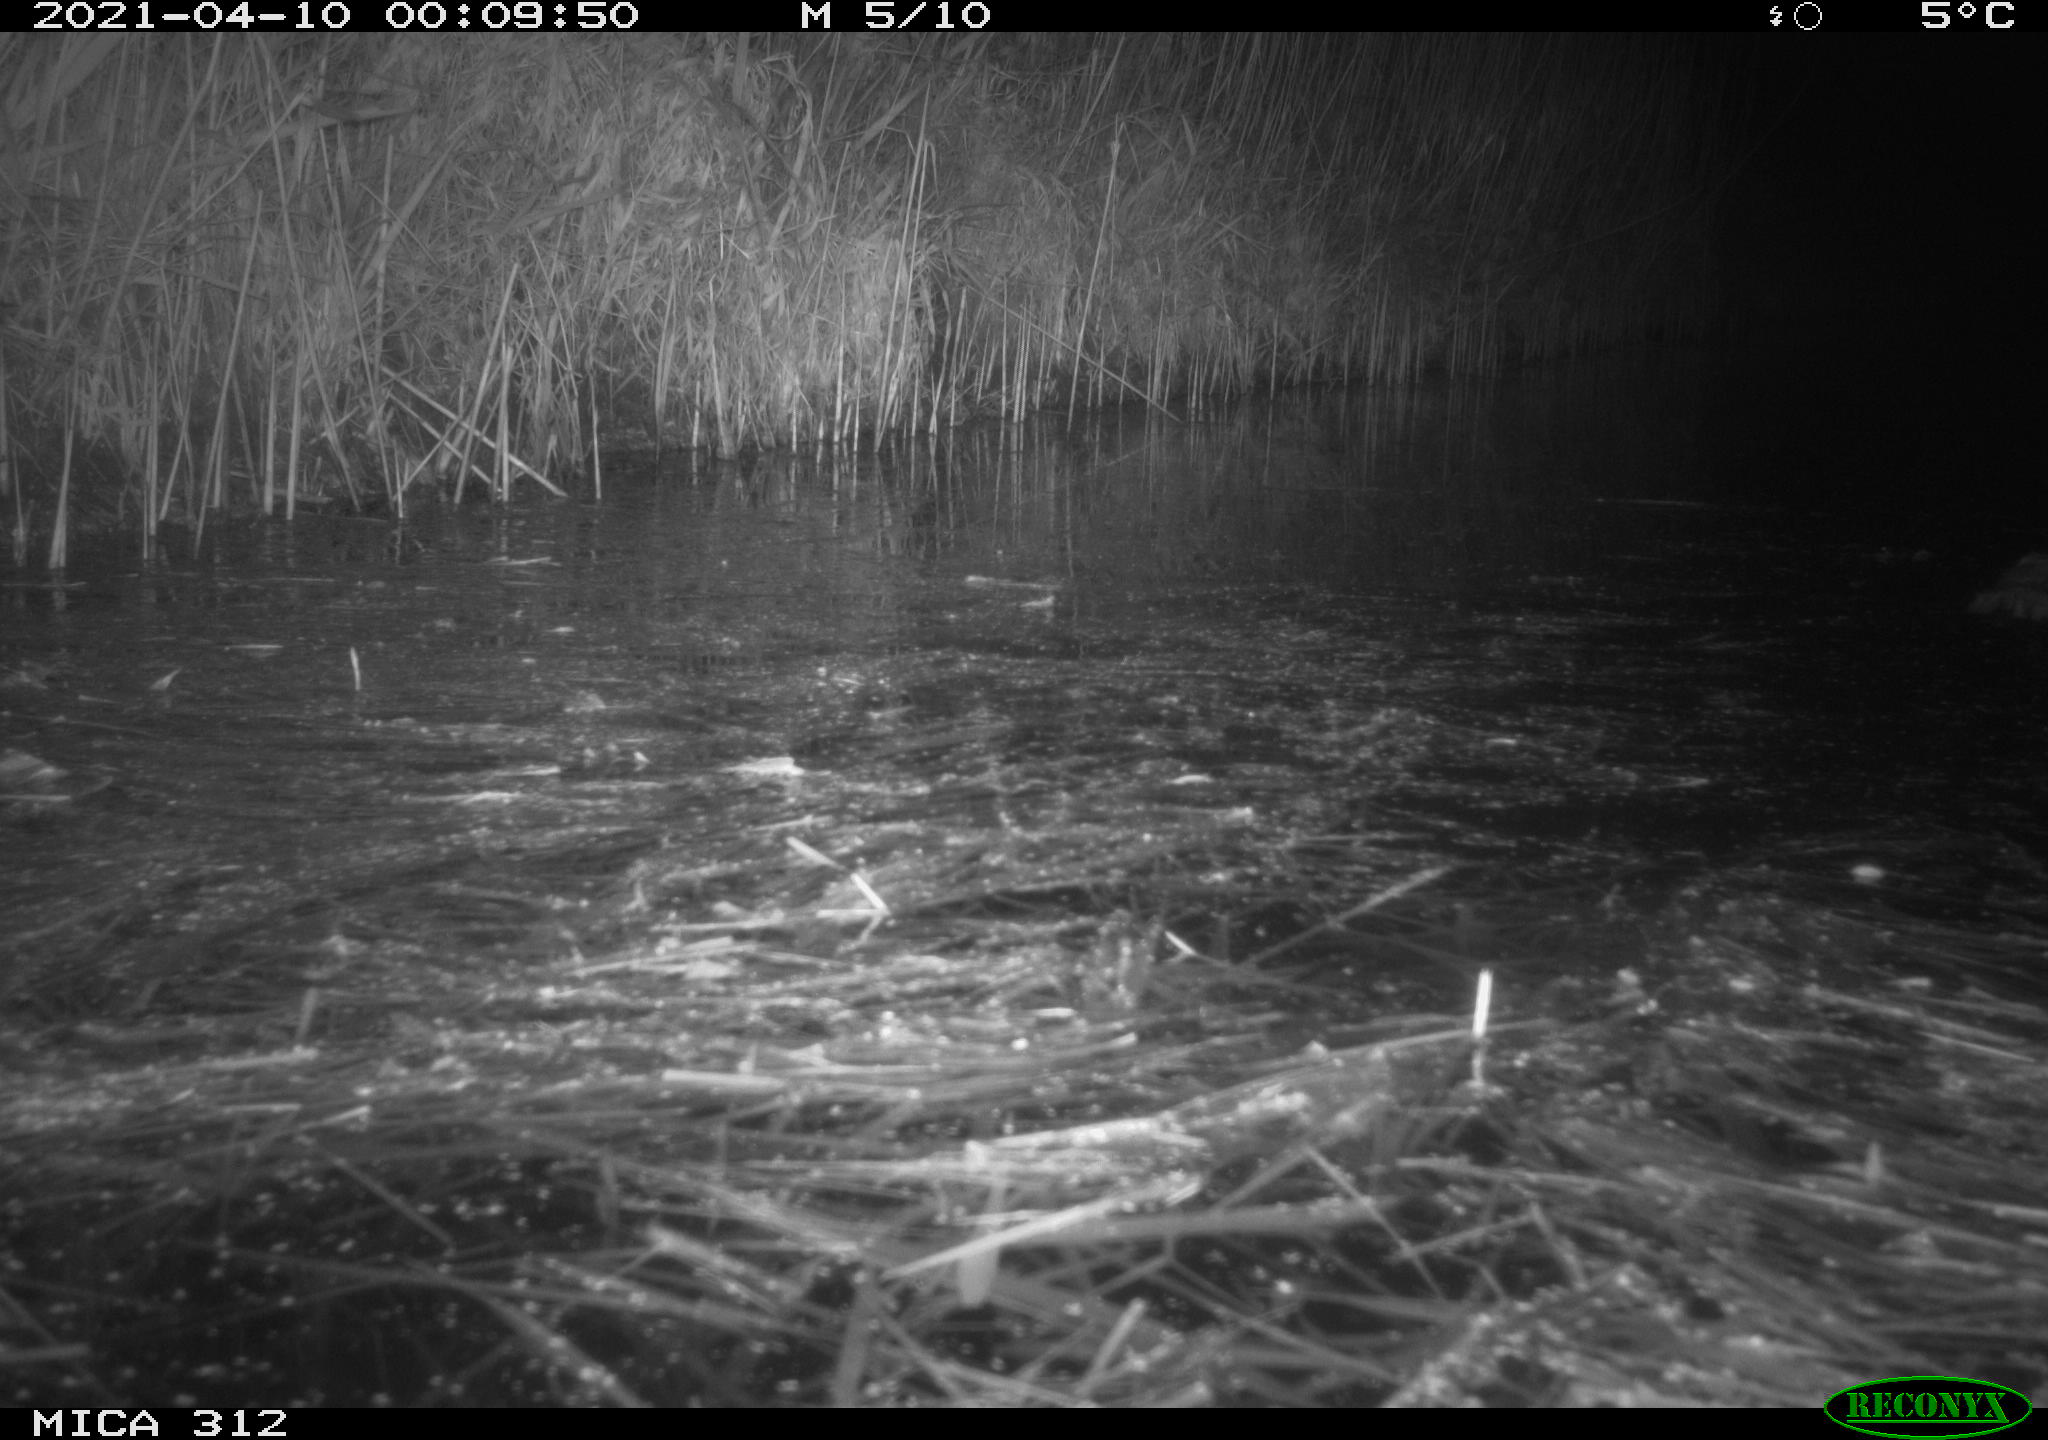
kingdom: Animalia
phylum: Chordata
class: Mammalia
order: Rodentia
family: Cricetidae
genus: Ondatra
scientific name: Ondatra zibethicus
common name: Muskrat
